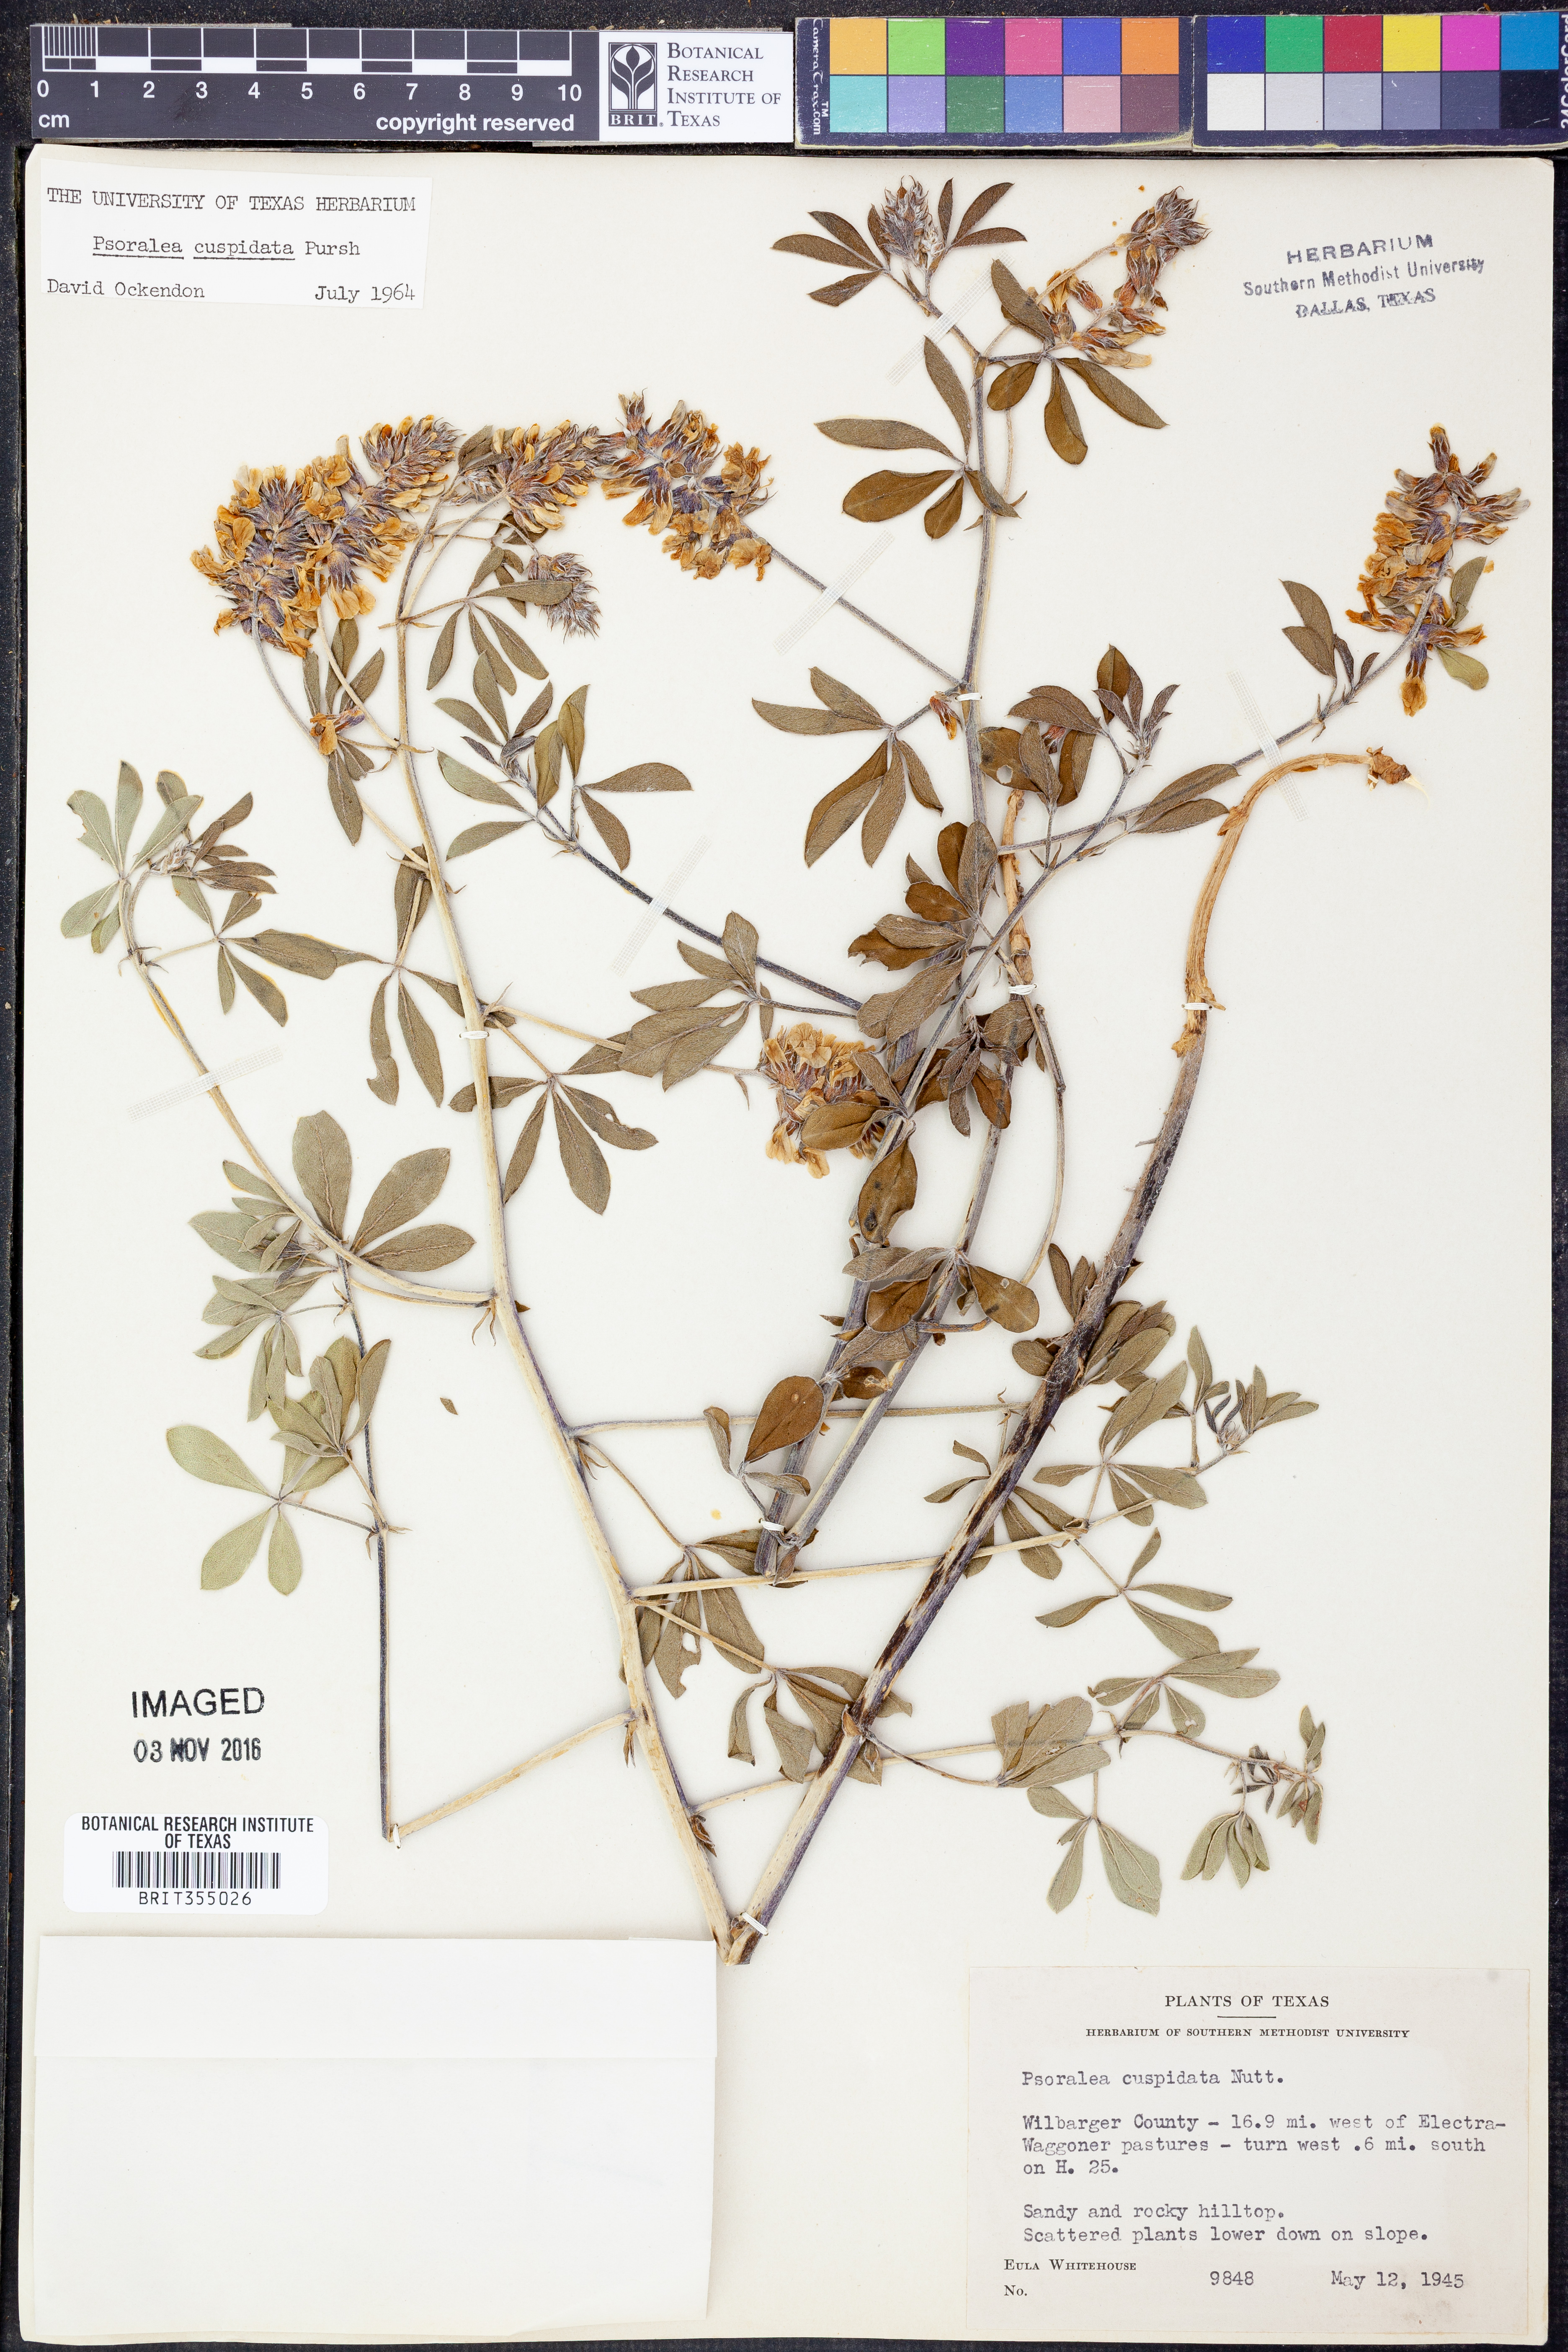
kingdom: Plantae
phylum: Tracheophyta
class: Magnoliopsida
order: Fabales
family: Fabaceae
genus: Pediomelum
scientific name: Pediomelum cuspidatum
